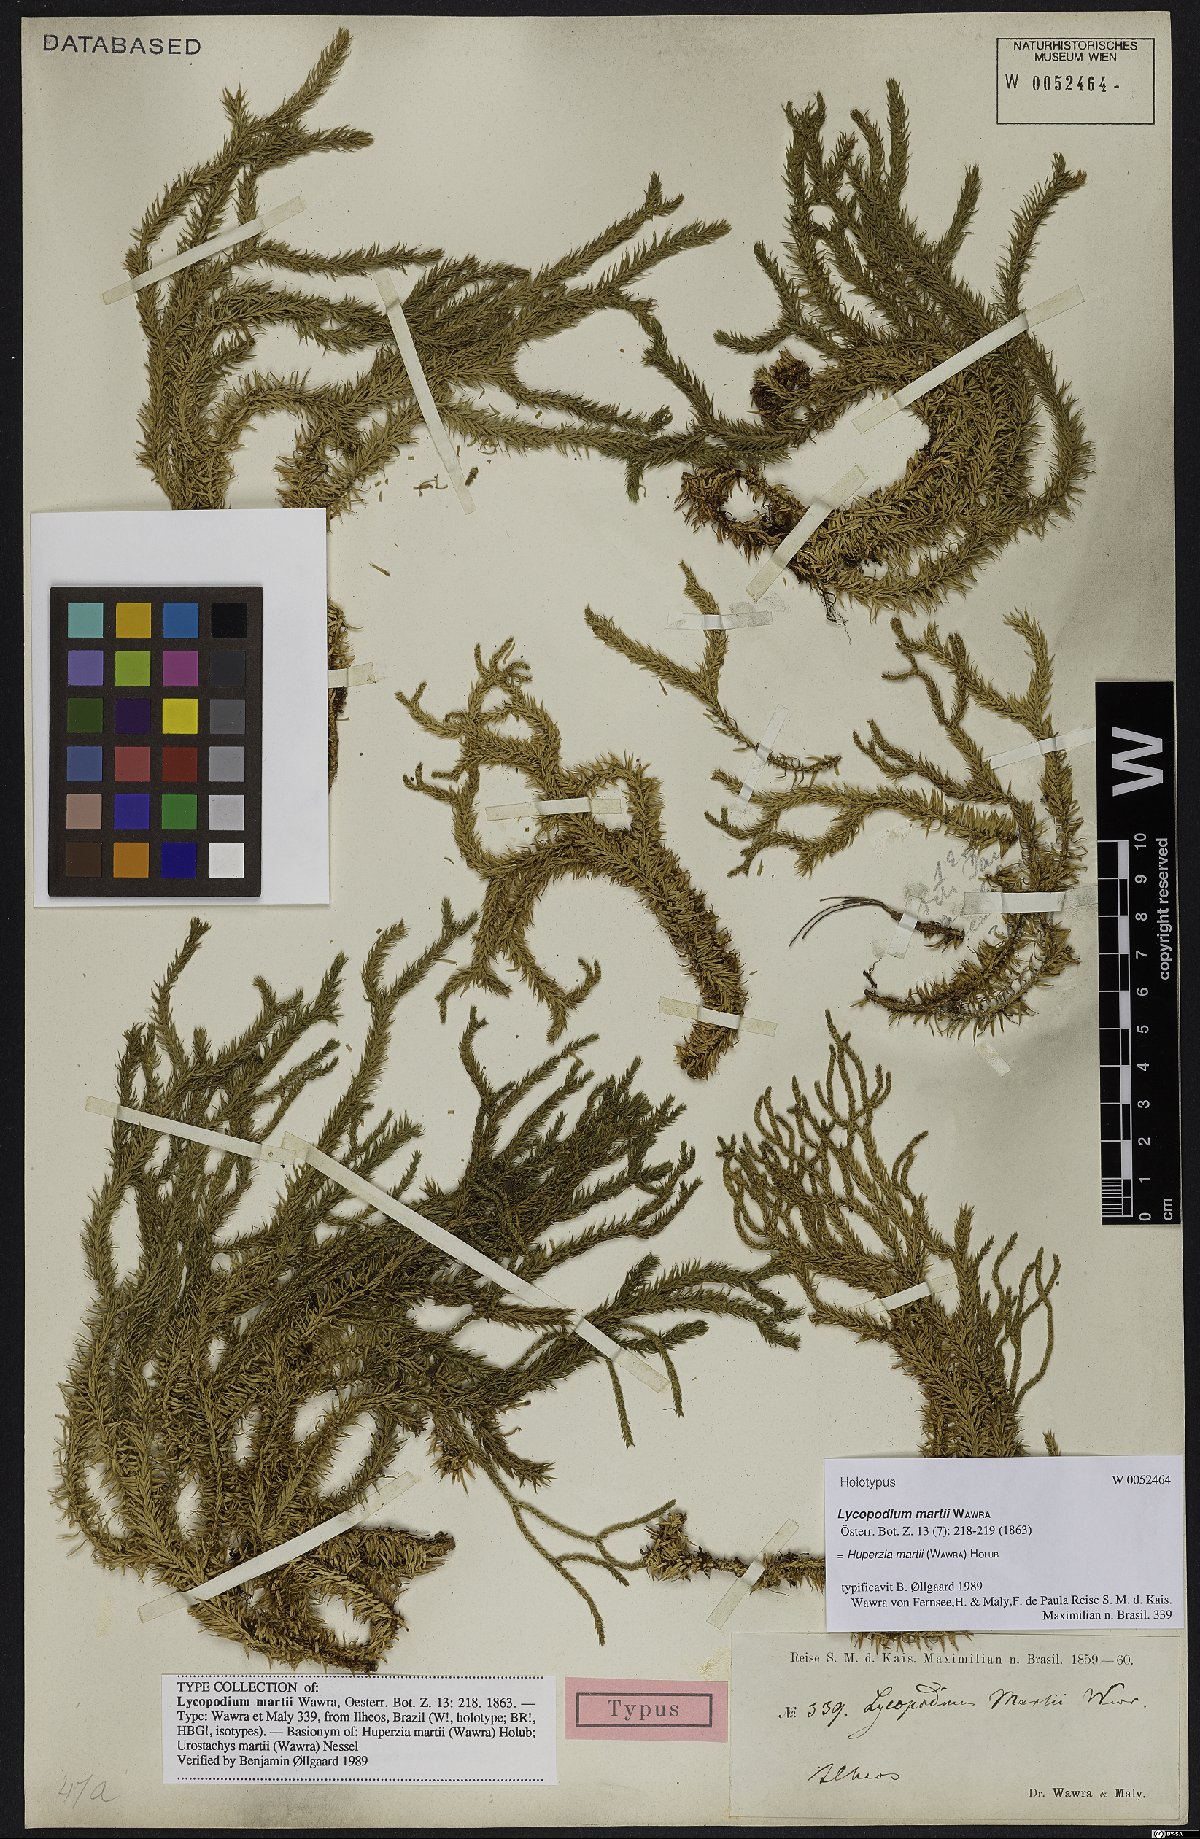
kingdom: Plantae
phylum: Tracheophyta
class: Lycopodiopsida
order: Lycopodiales
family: Lycopodiaceae
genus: Phlegmariurus
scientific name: Phlegmariurus martii
